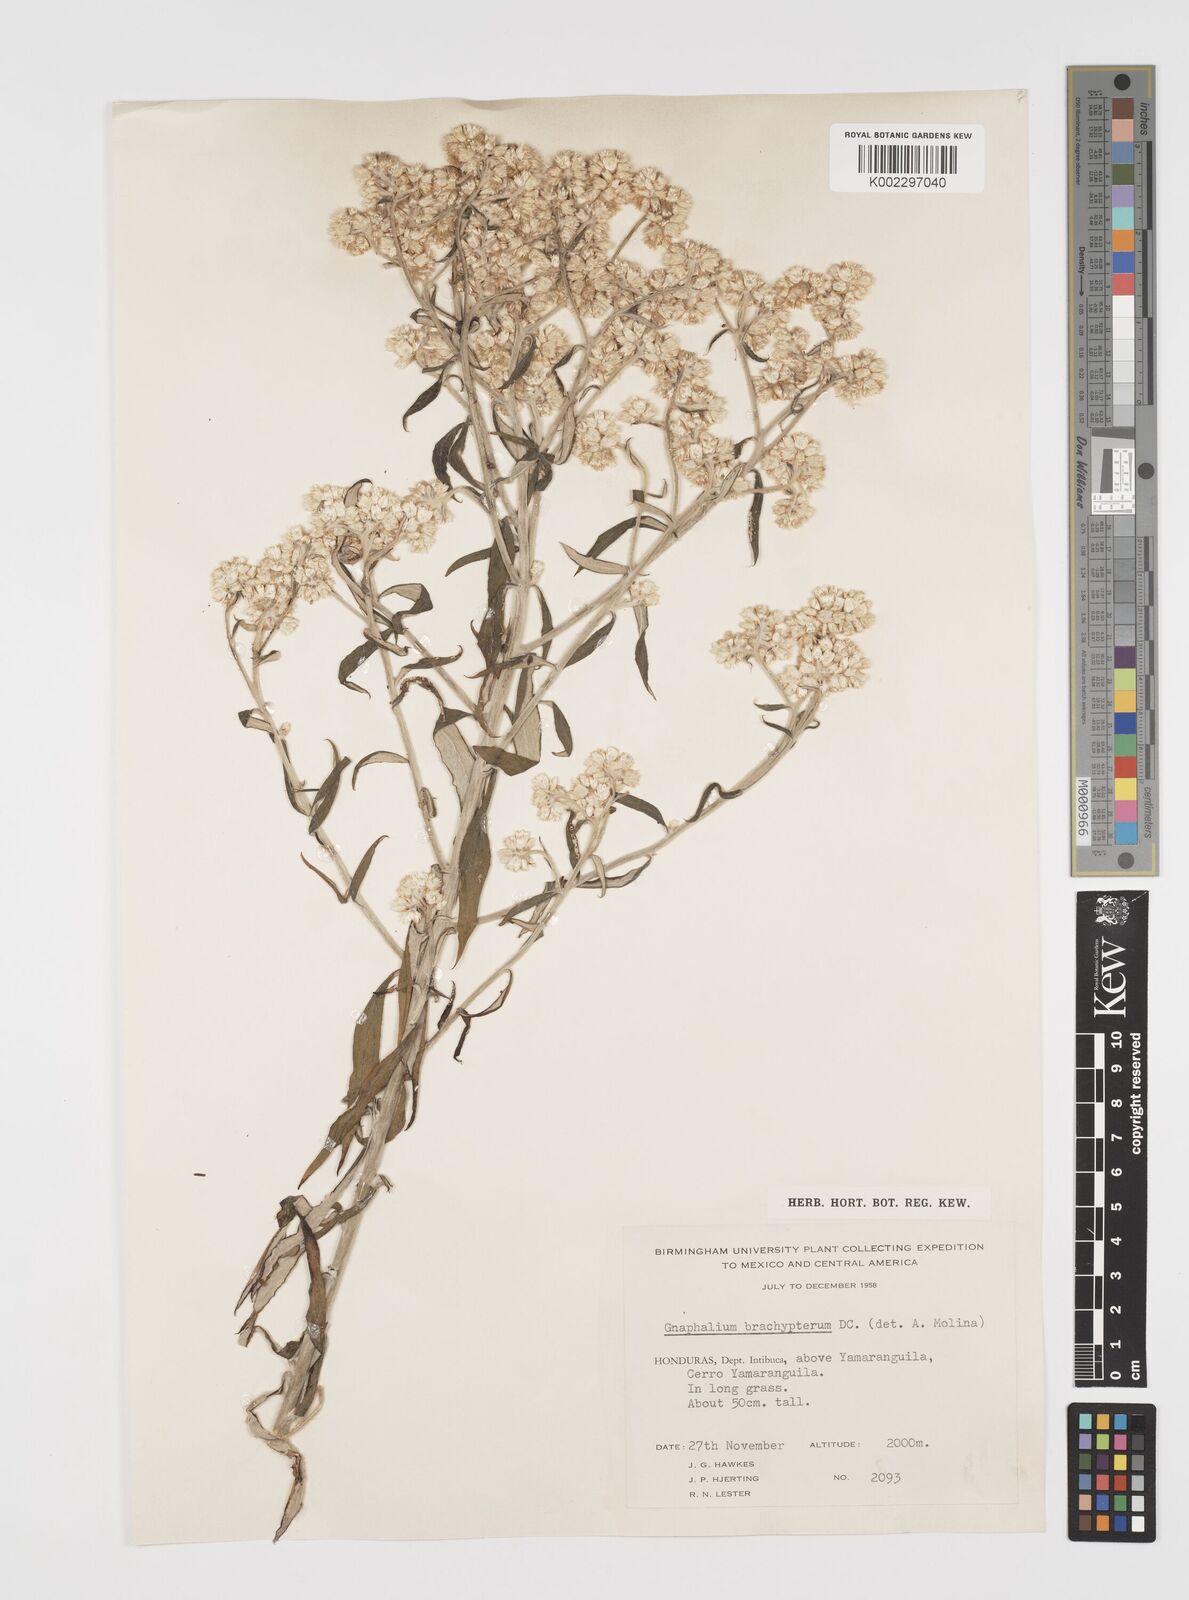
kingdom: Plantae
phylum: Tracheophyta
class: Magnoliopsida
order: Asterales
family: Asteraceae
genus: Pseudognaphalium
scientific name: Pseudognaphalium brachypterum
